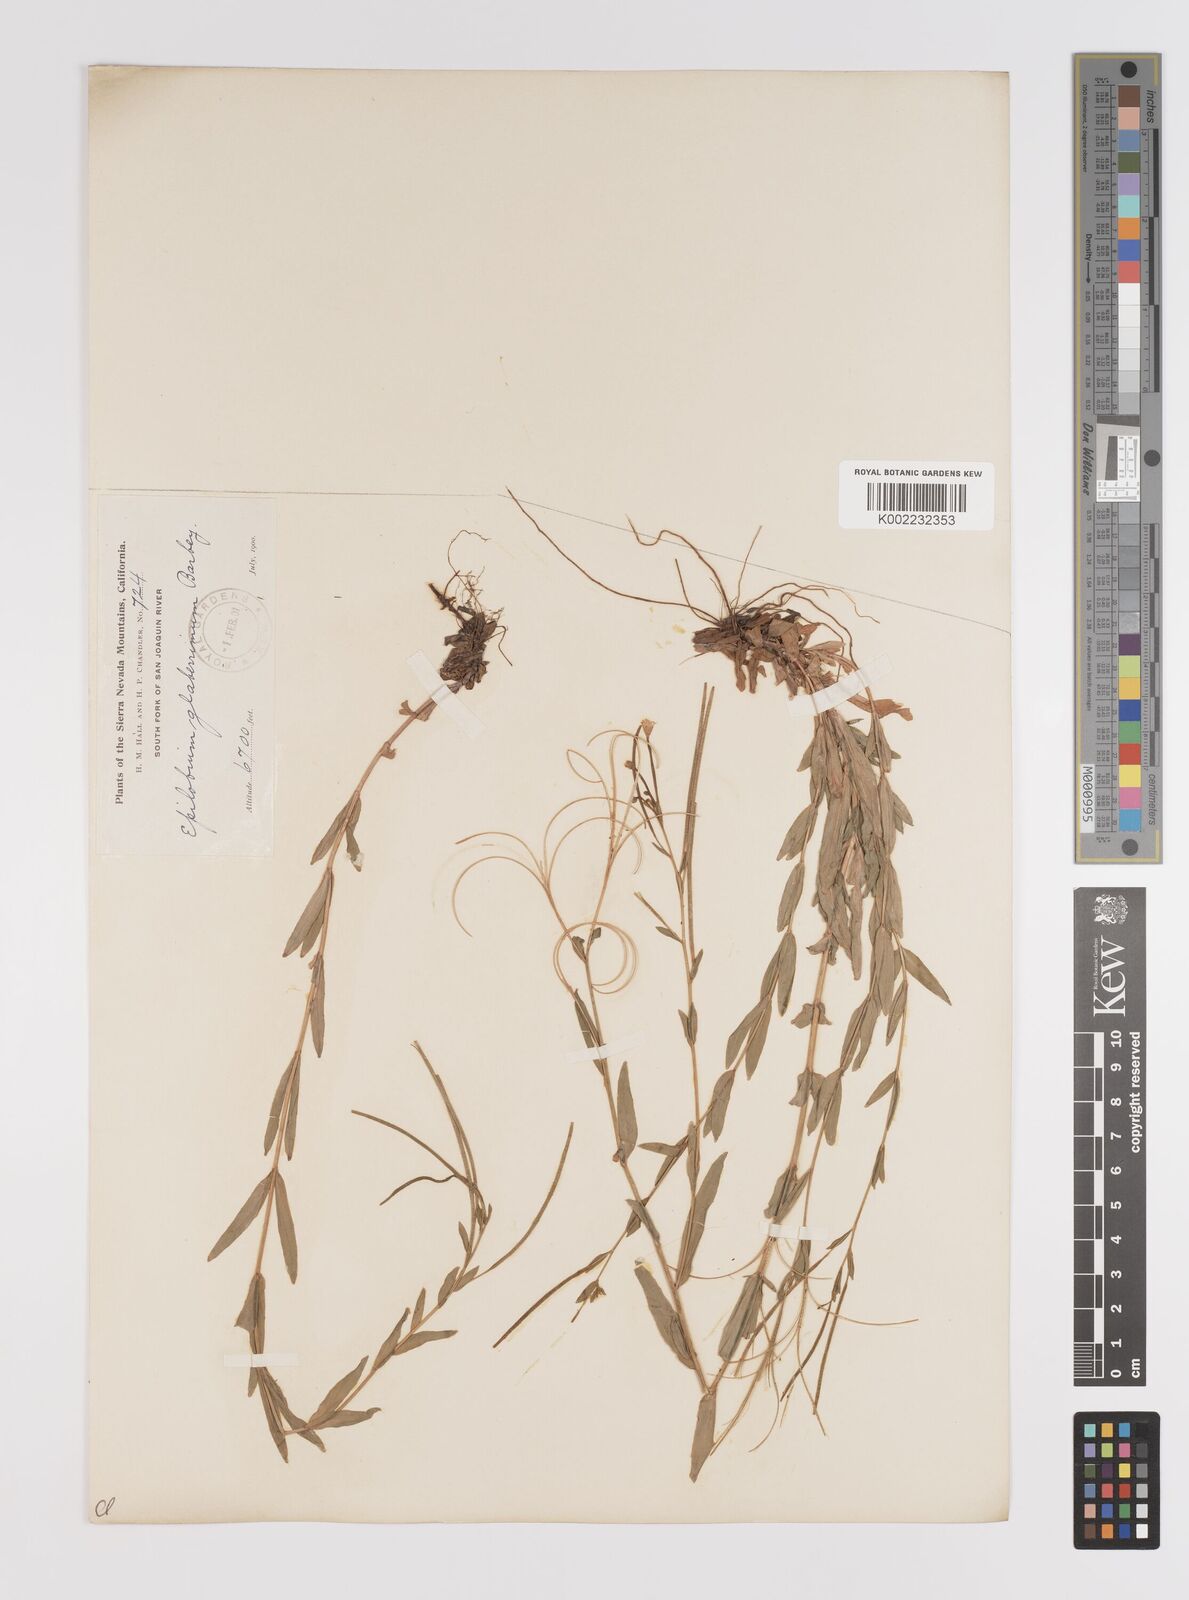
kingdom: Plantae
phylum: Tracheophyta
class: Magnoliopsida
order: Myrtales
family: Onagraceae
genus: Epilobium
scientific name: Epilobium glaberrimum
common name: Glaucous willowherb
